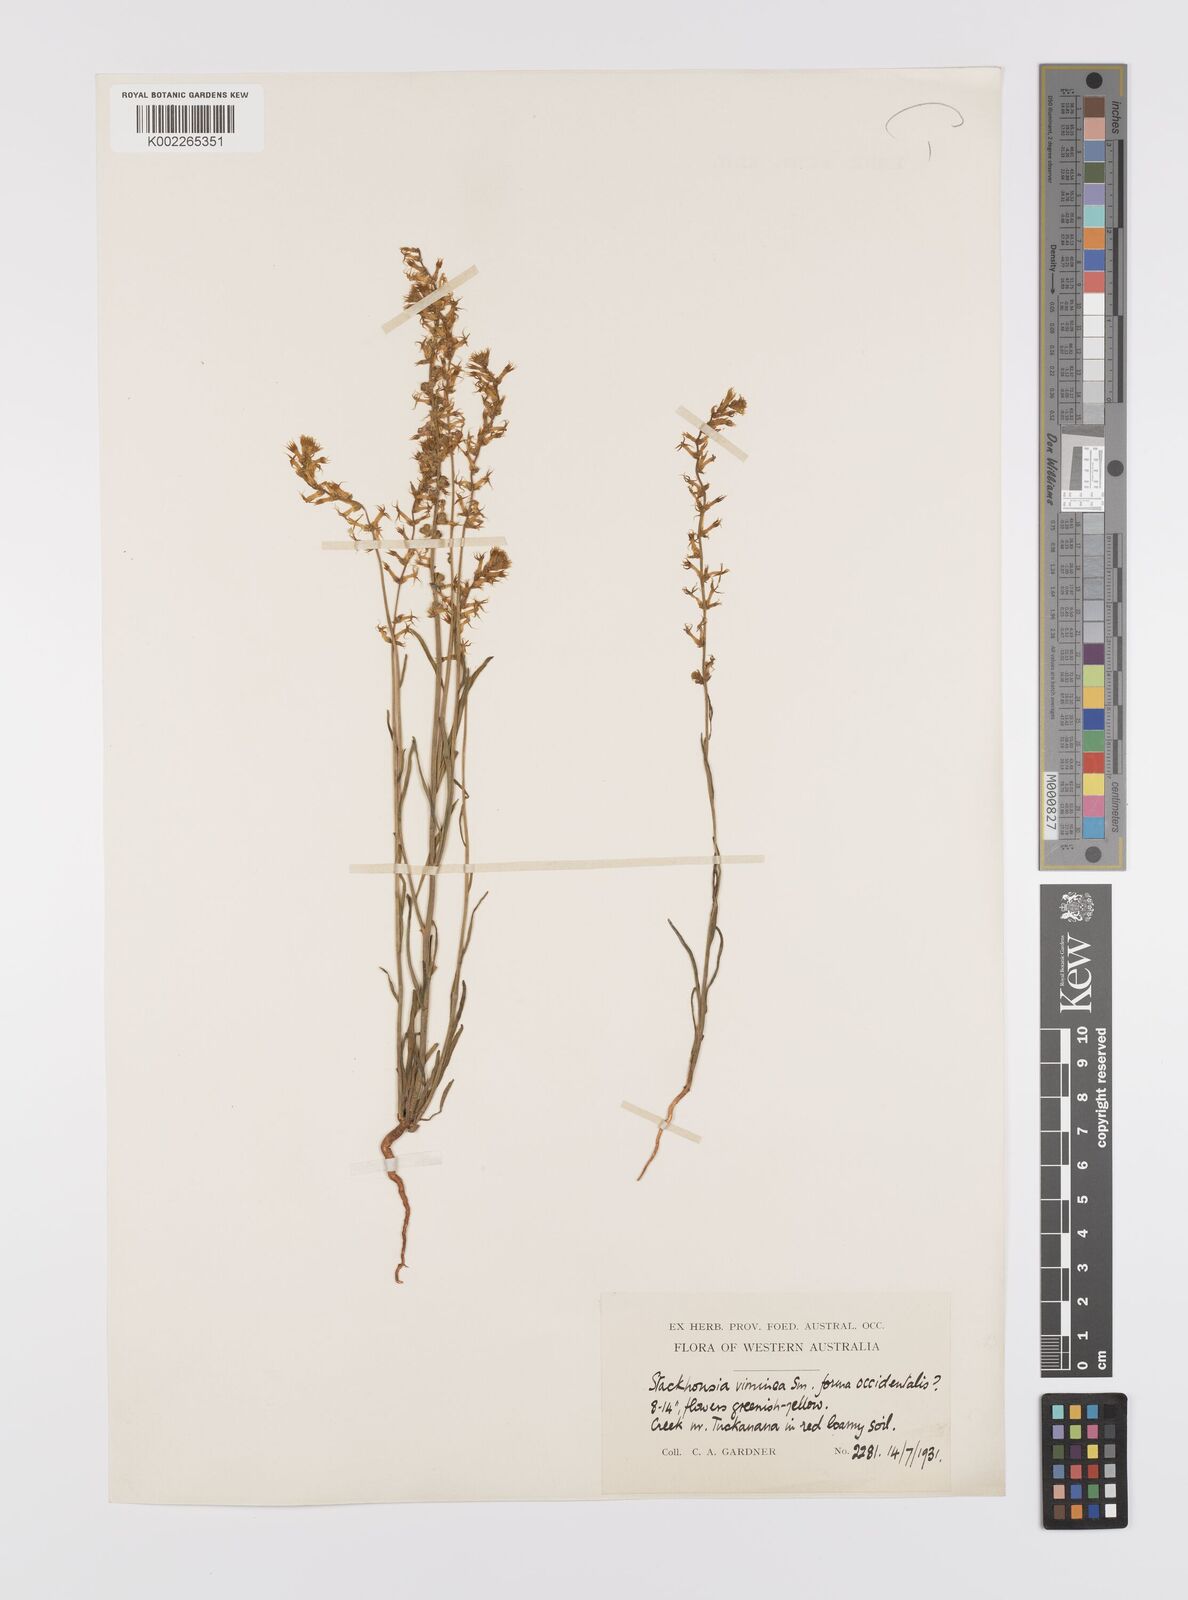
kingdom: Plantae
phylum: Tracheophyta
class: Magnoliopsida
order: Celastrales
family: Celastraceae
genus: Stackhousia
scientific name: Stackhousia muricata
